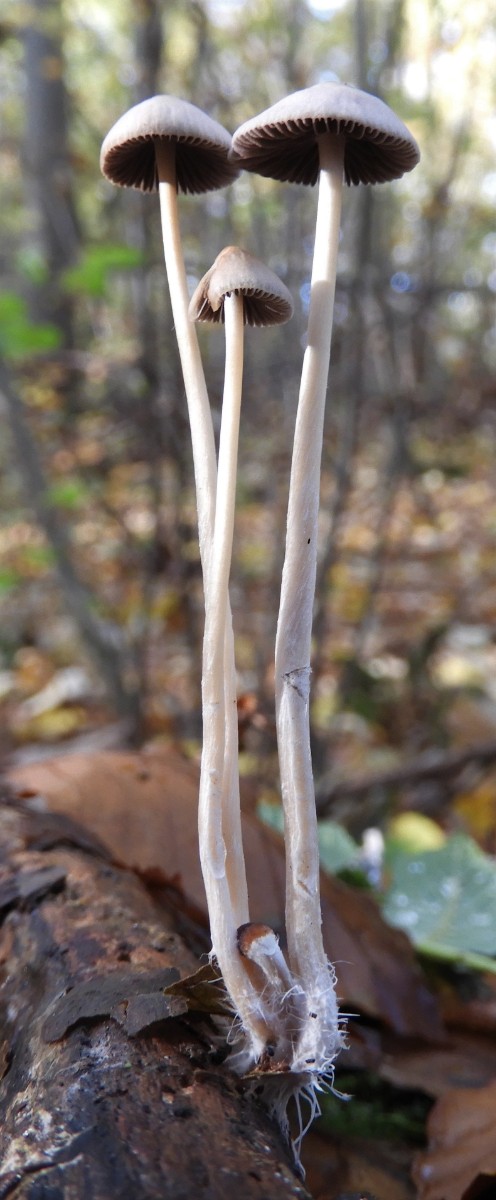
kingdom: Fungi
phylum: Basidiomycota
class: Agaricomycetes
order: Agaricales
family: Psathyrellaceae
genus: Psathyrella
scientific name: Psathyrella
